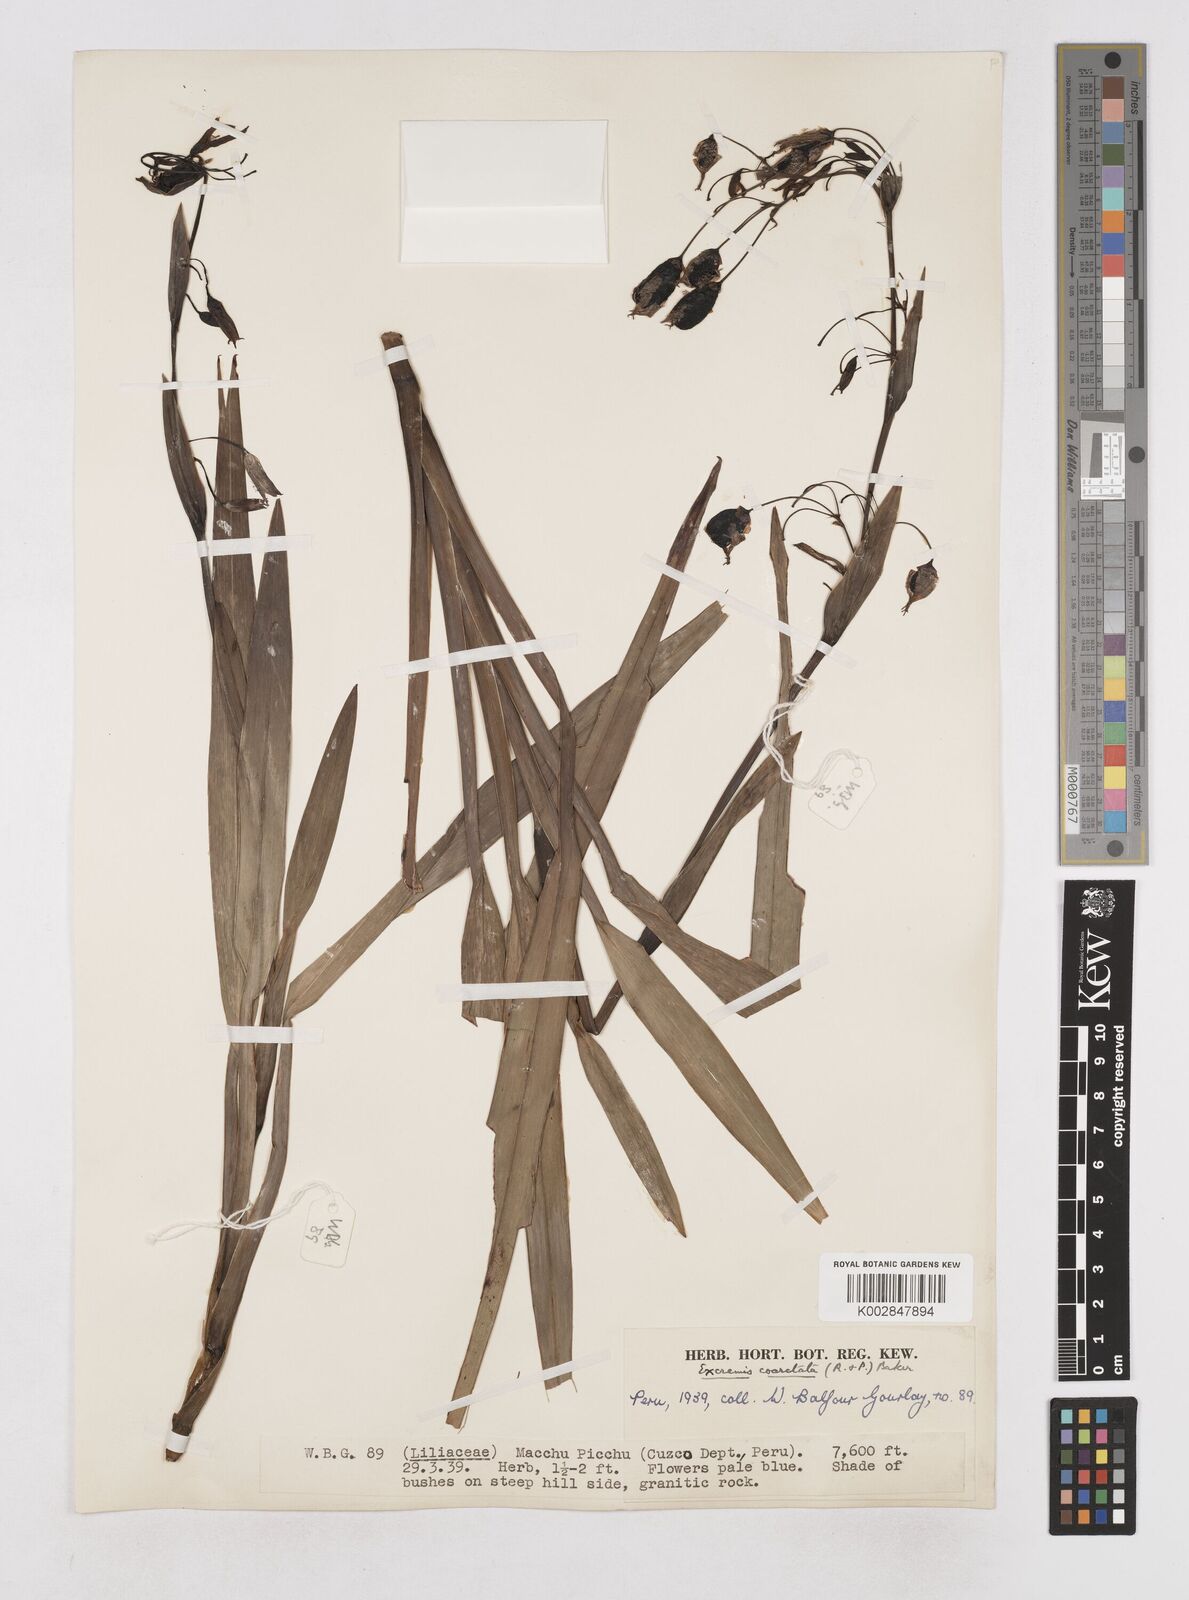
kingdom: Plantae
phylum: Tracheophyta
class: Liliopsida
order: Asparagales
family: Asphodelaceae
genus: Excremis
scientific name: Excremis coarctata
